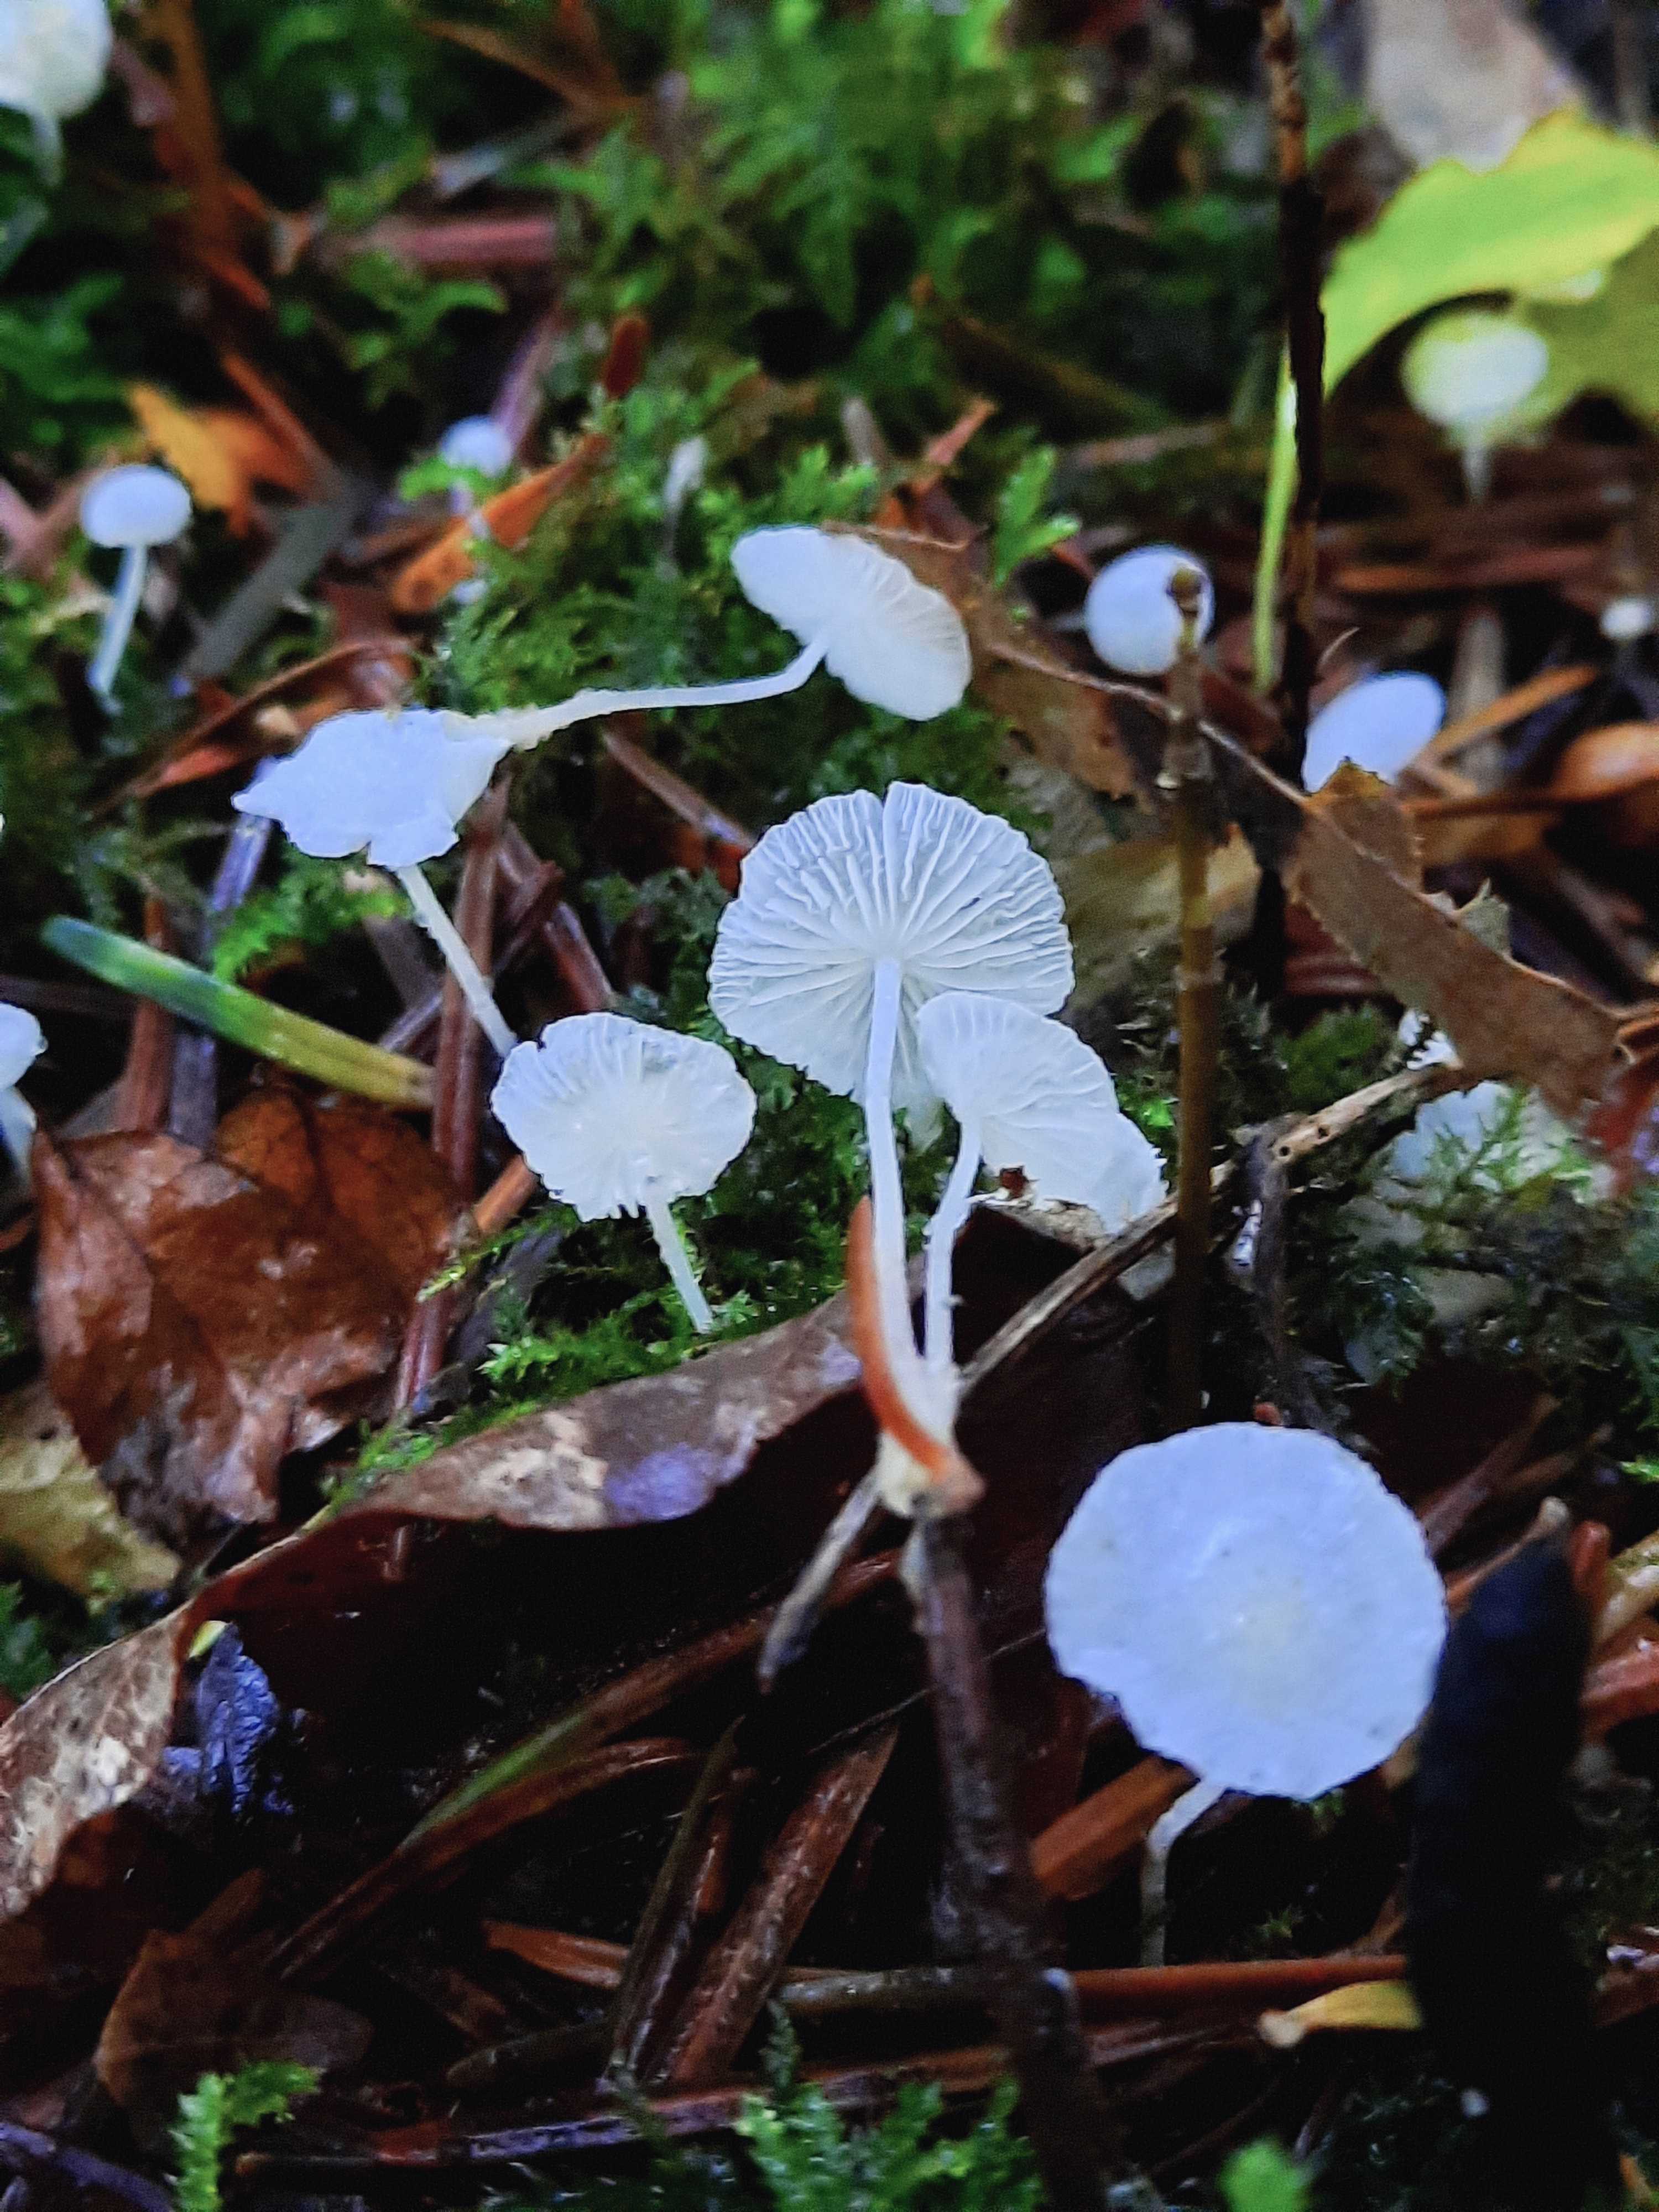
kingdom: Fungi
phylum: Basidiomycota
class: Agaricomycetes
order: Agaricales
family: Mycenaceae
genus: Hemimycena
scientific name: Hemimycena lactea
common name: mælkehvid huesvamp
